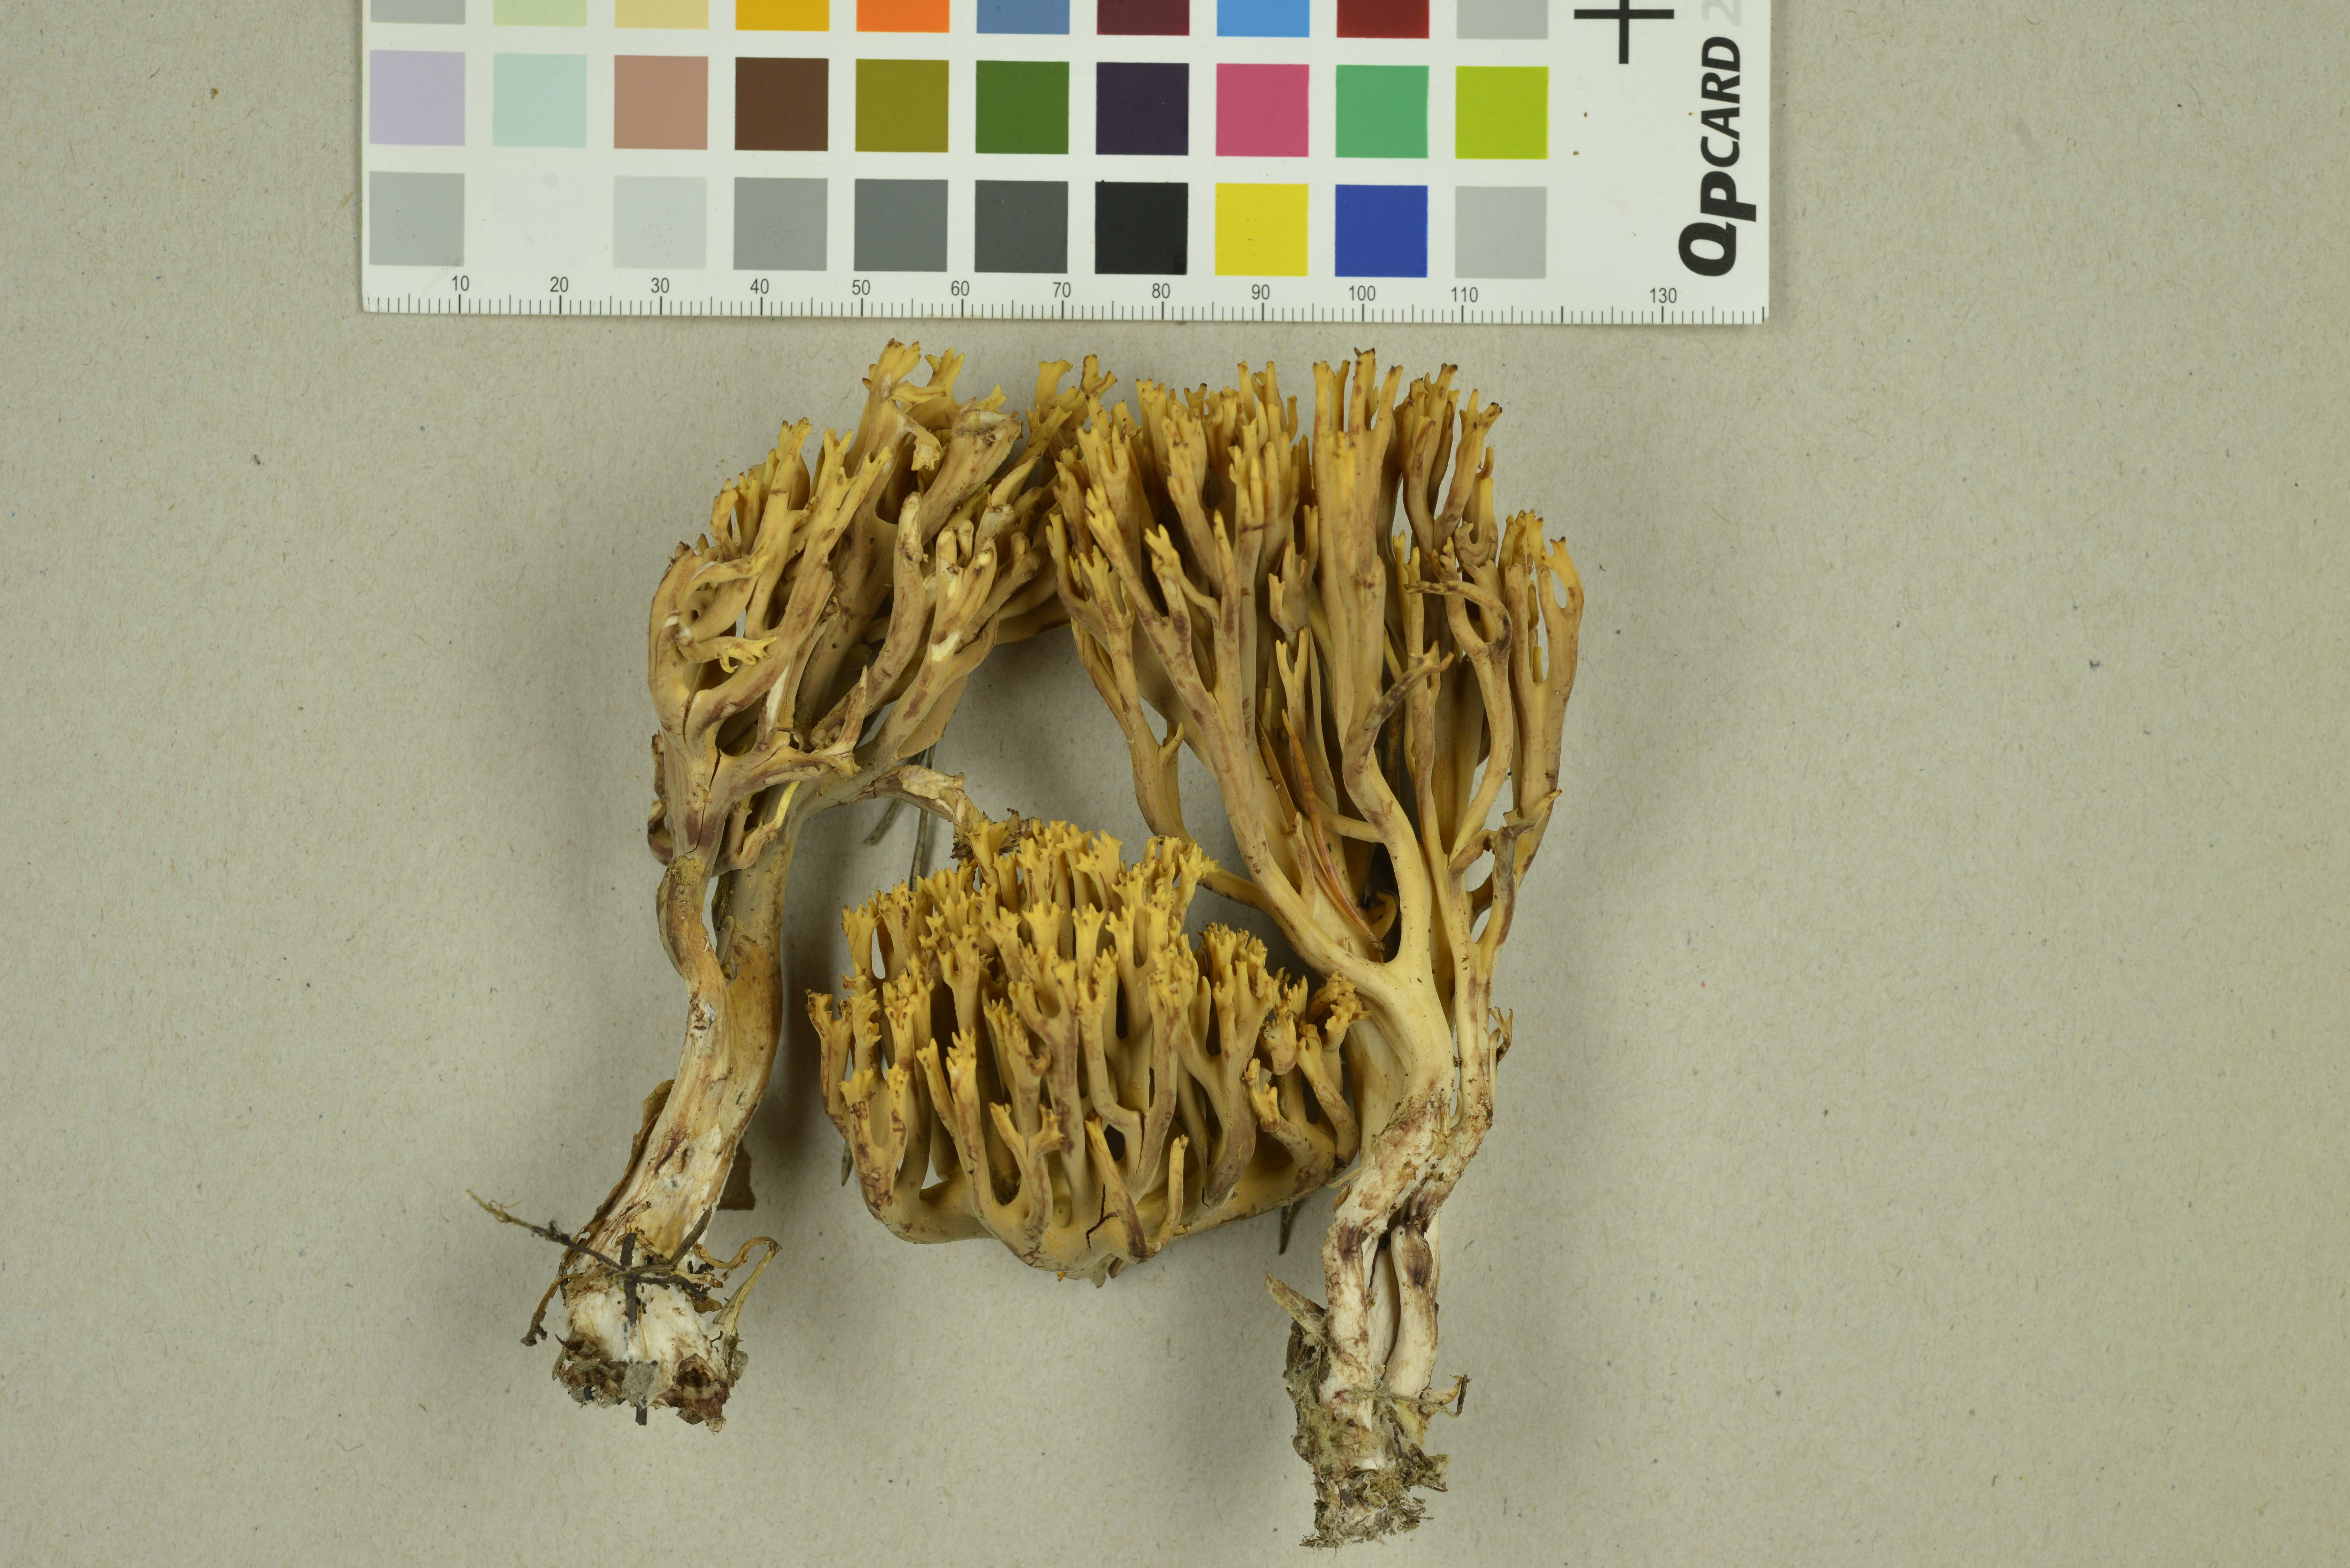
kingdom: Fungi
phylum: Basidiomycota
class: Agaricomycetes
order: Gomphales
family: Gomphaceae
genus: Ramaria
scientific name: Ramaria testaceoflava
